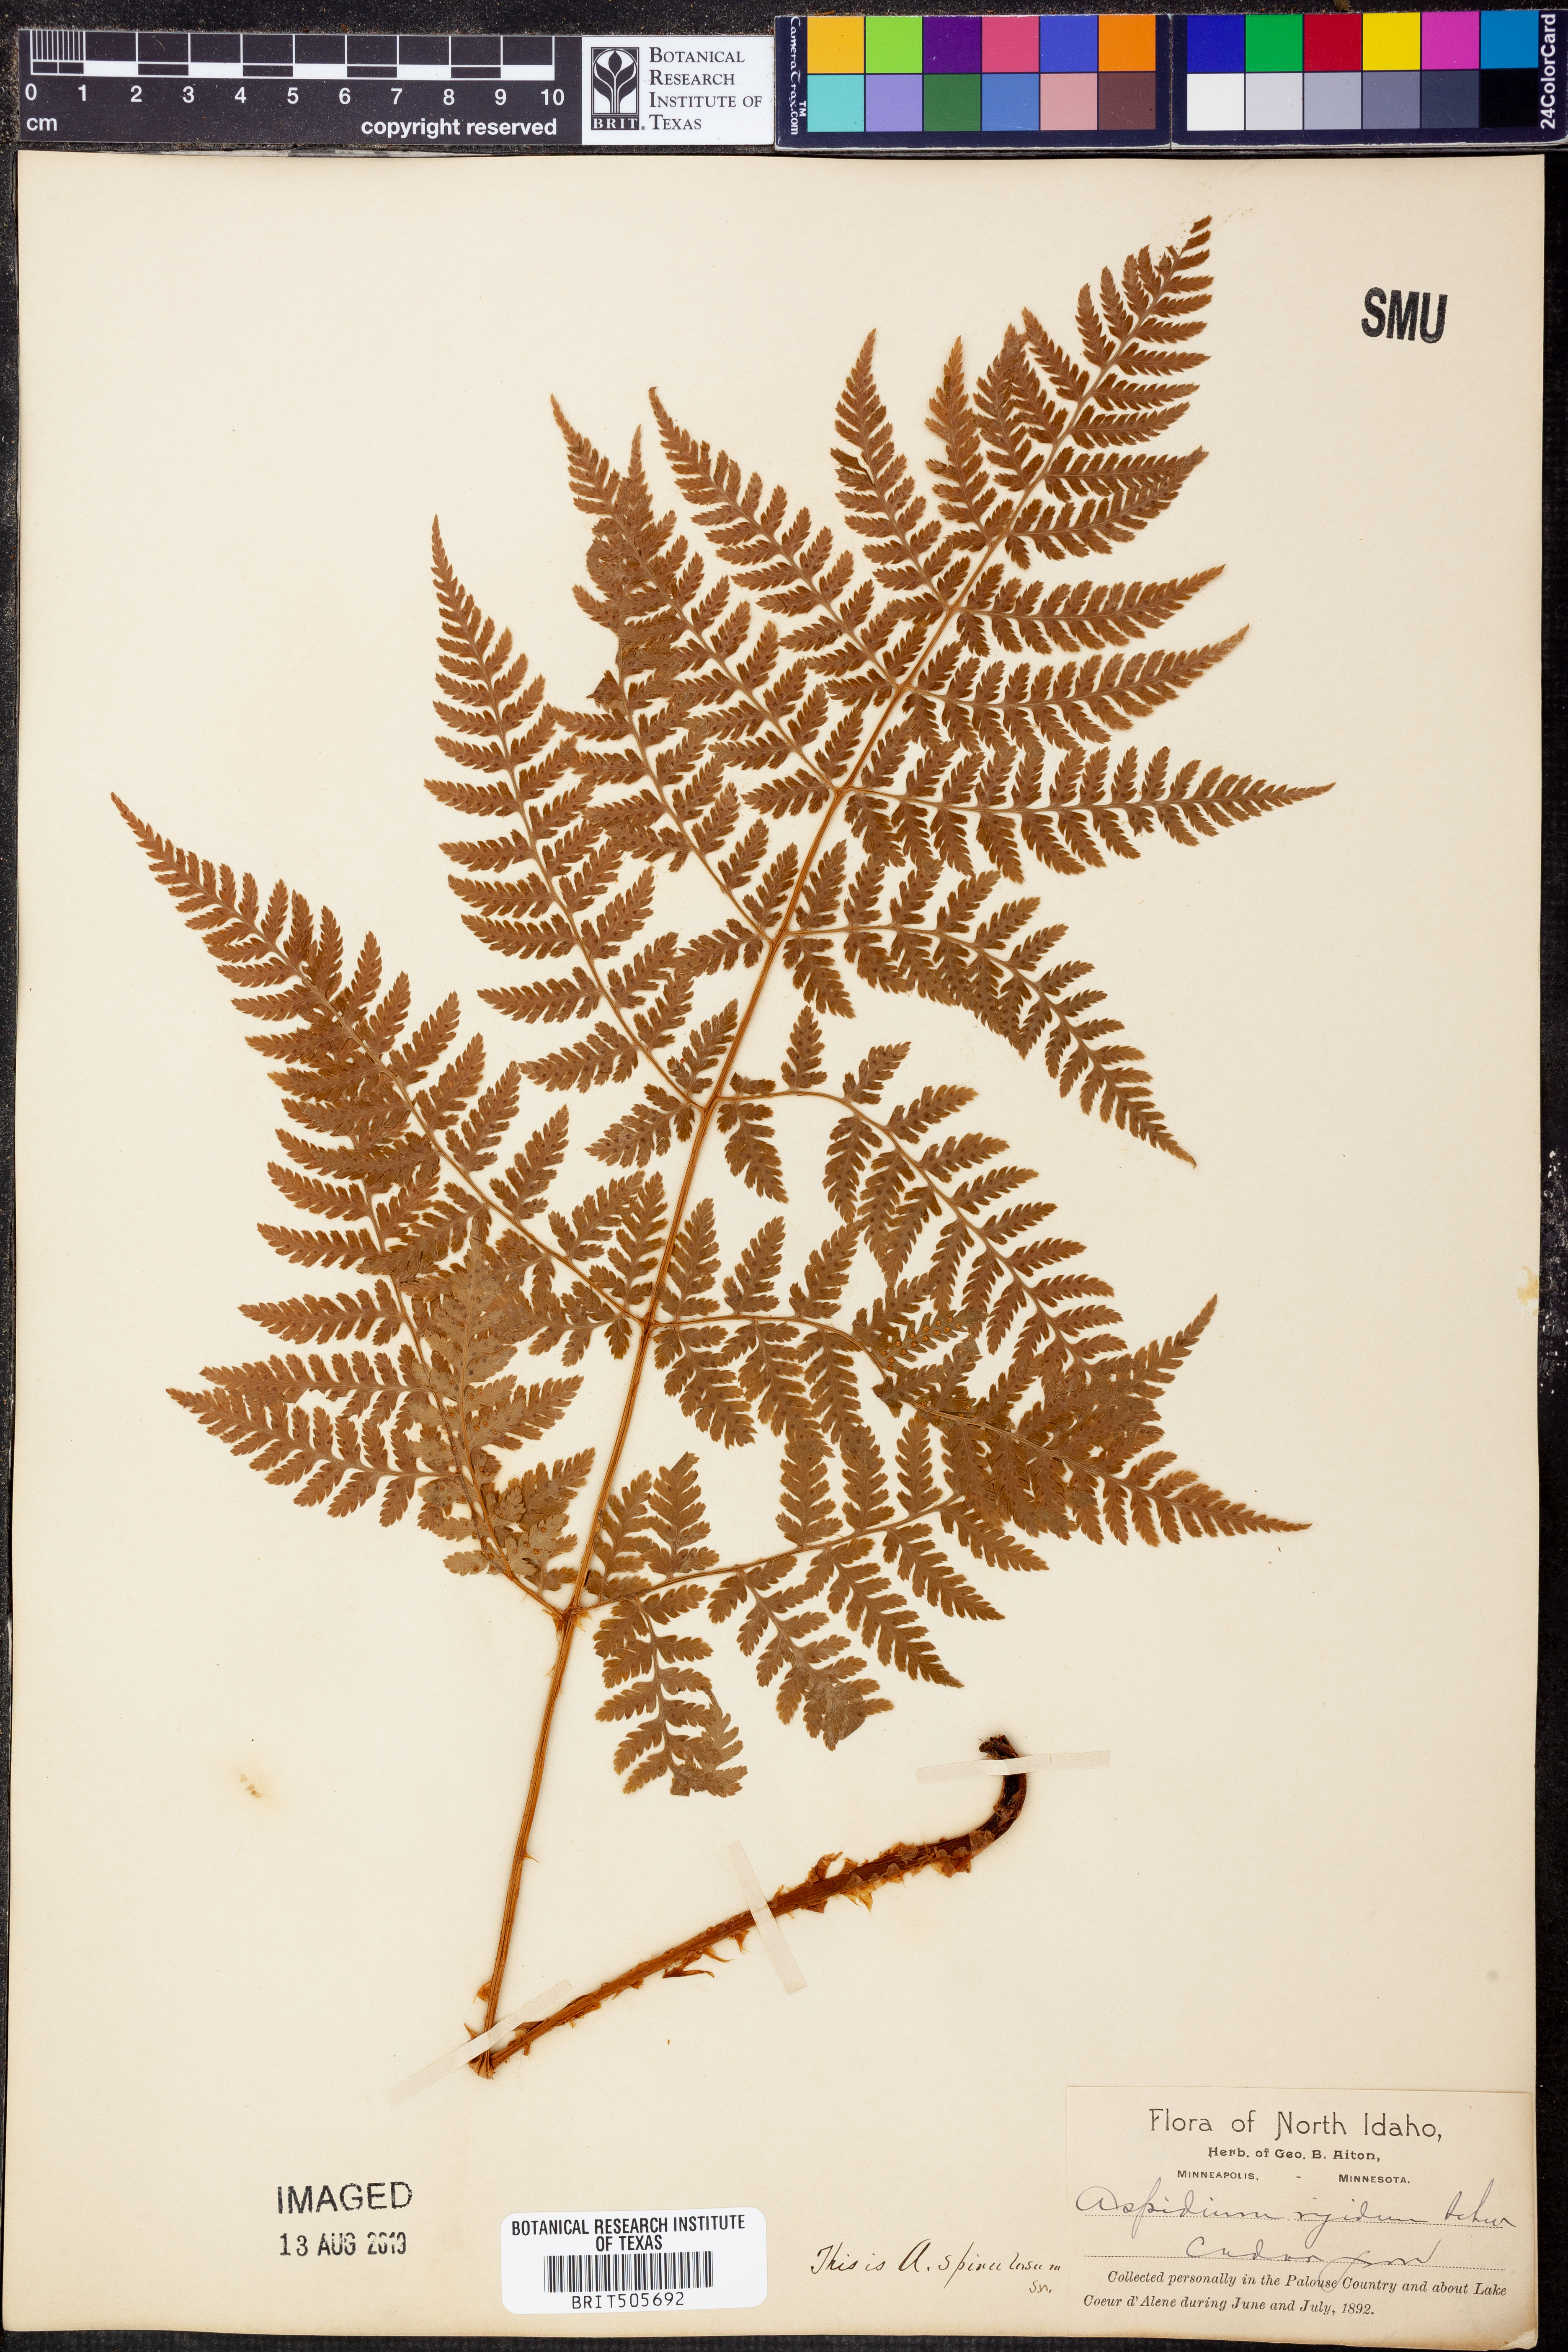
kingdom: Plantae
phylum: Tracheophyta
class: Polypodiopsida
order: Polypodiales
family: Dryopteridaceae
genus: Dryopteris
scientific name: Dryopteris carthusiana
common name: Narrow buckler-fern
